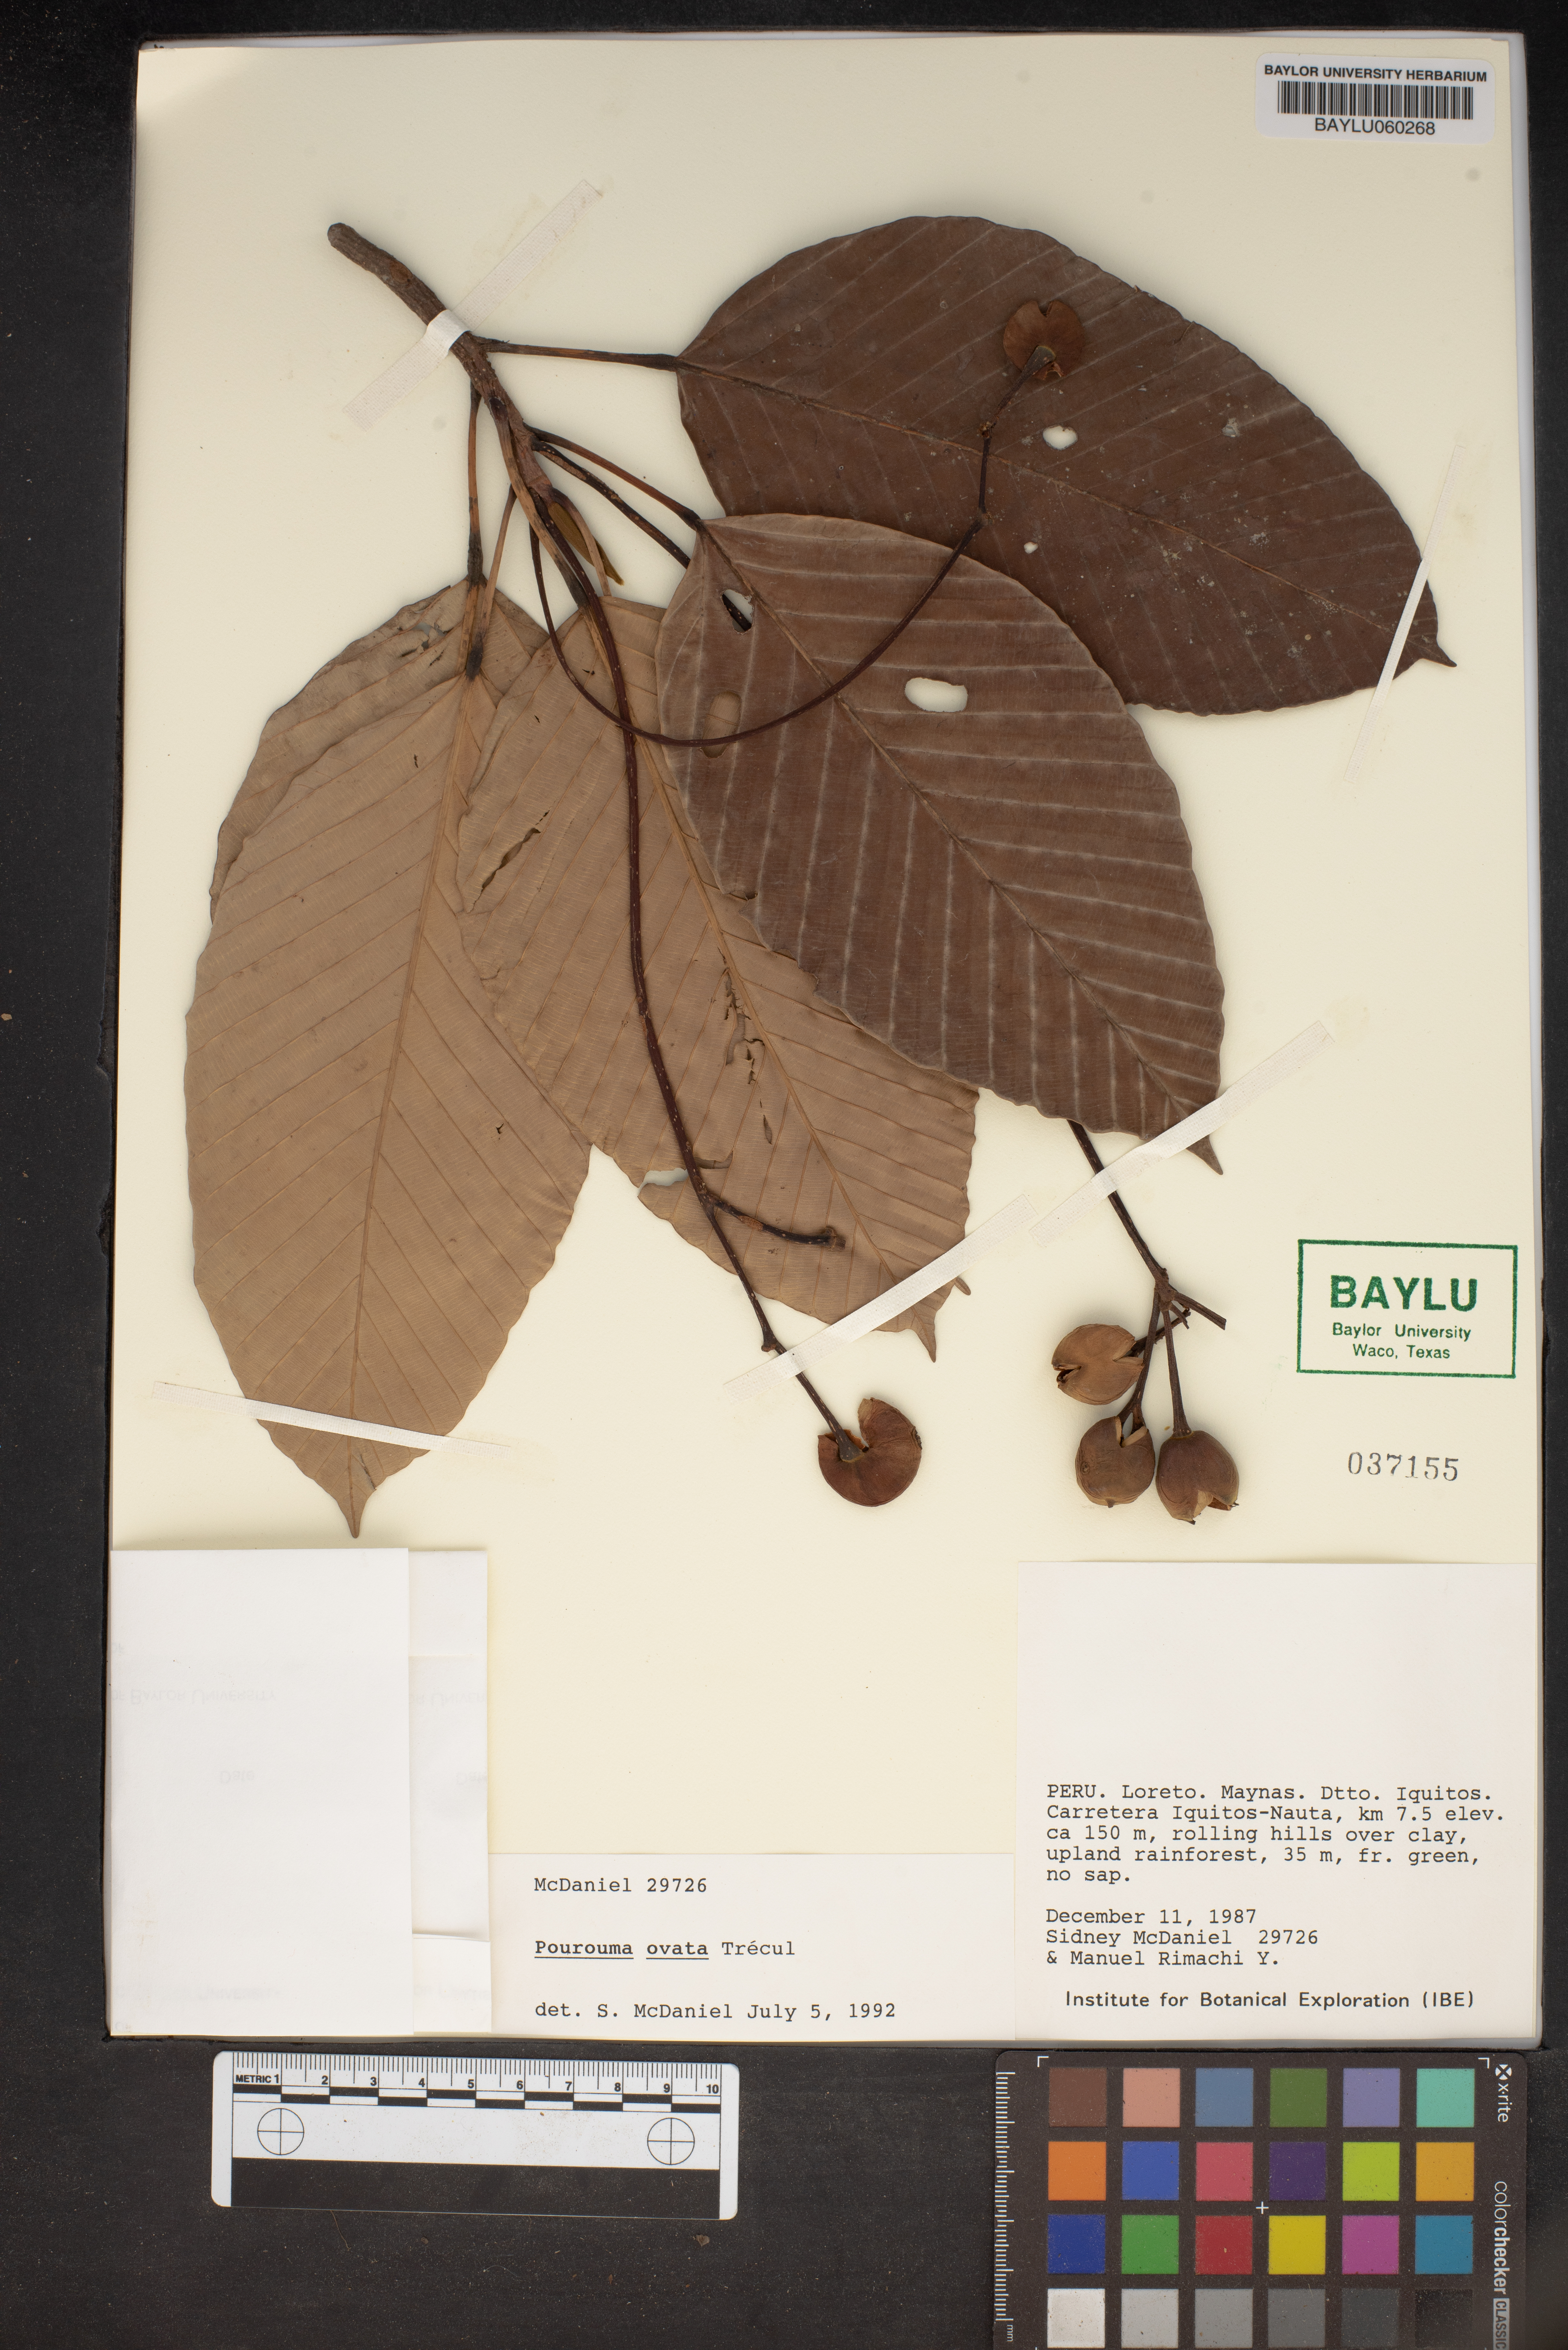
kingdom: Plantae
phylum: Tracheophyta
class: Magnoliopsida
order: Rosales
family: Urticaceae
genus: Pourouma
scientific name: Pourouma ovata
